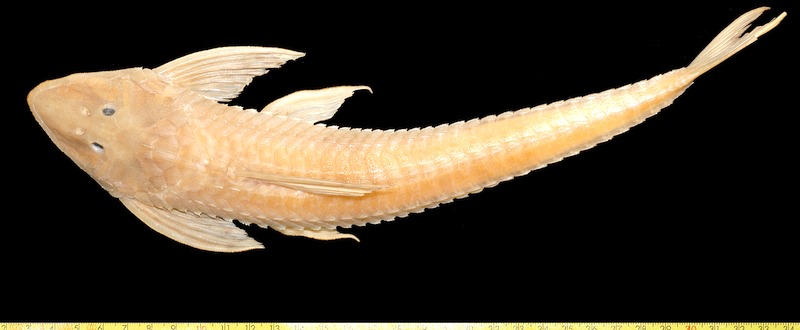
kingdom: Animalia
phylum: Chordata
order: Siluriformes
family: Loricariidae
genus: Brochiloricaria
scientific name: Brochiloricaria chauliodon
